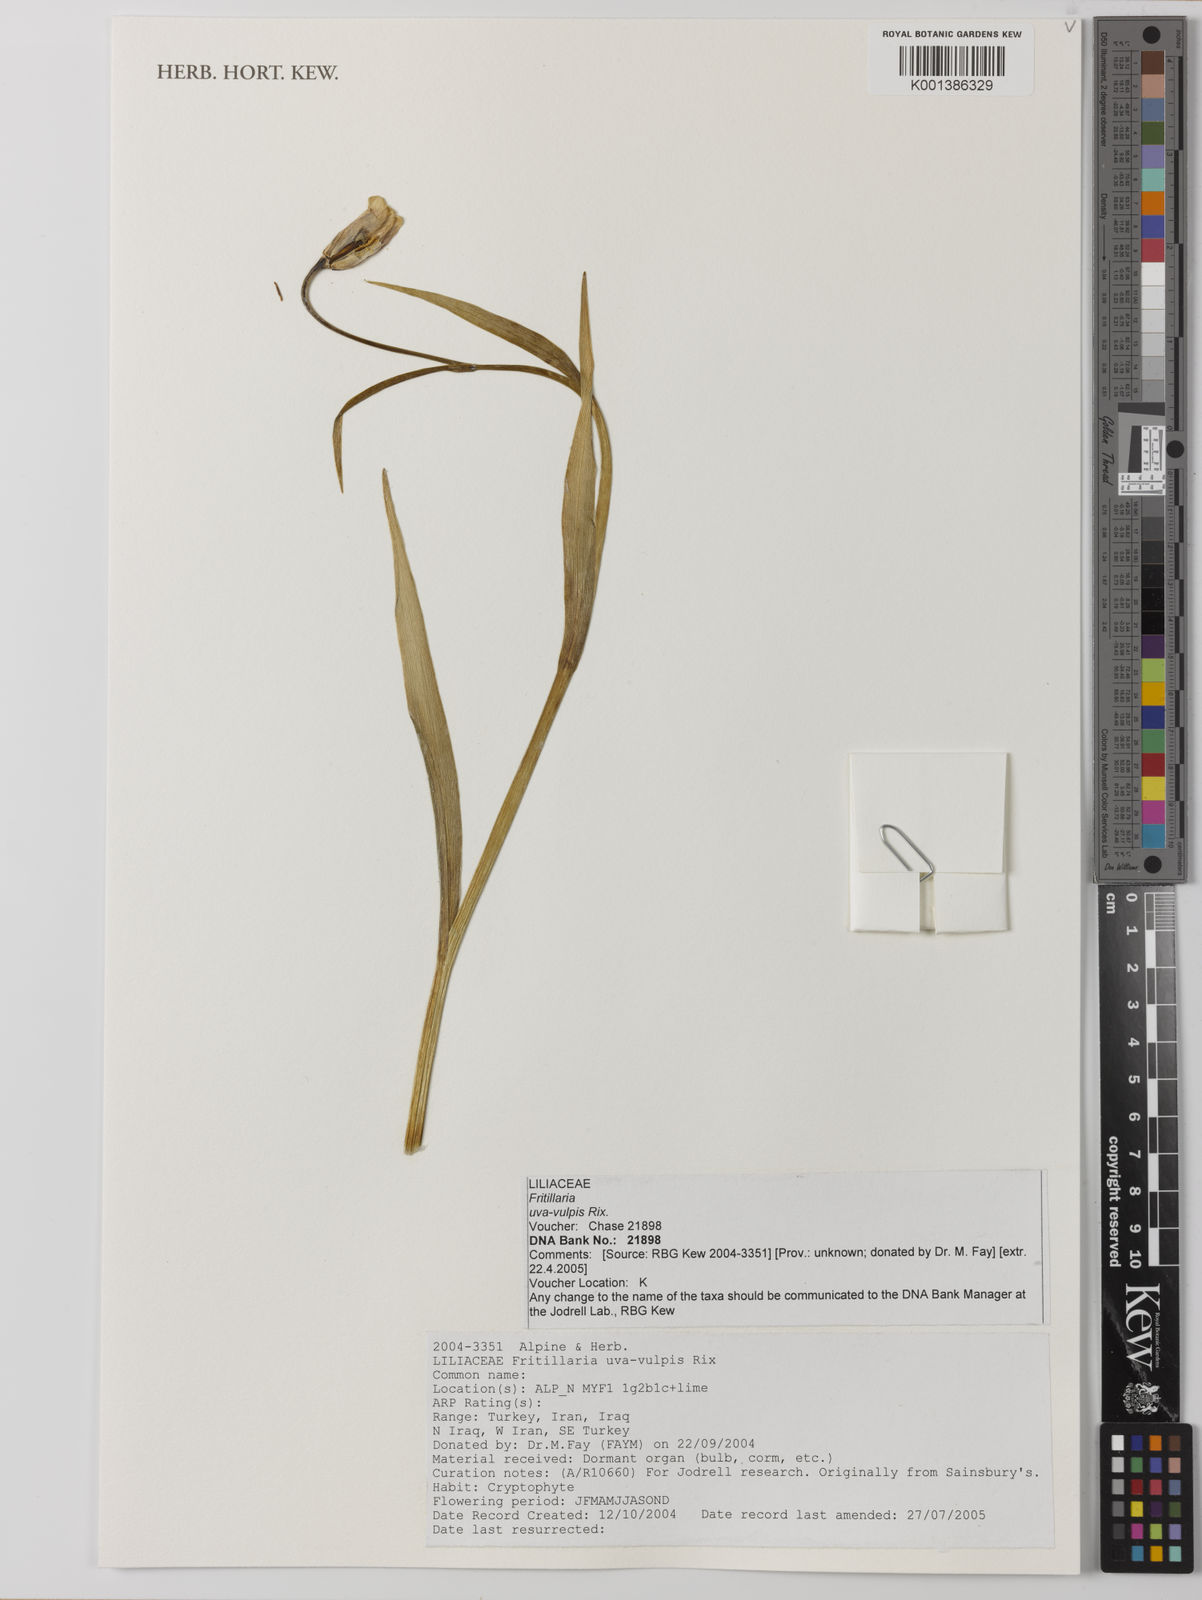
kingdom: Plantae
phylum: Tracheophyta
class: Liliopsida
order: Liliales
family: Liliaceae
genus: Fritillaria
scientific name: Fritillaria uva-vulpis
